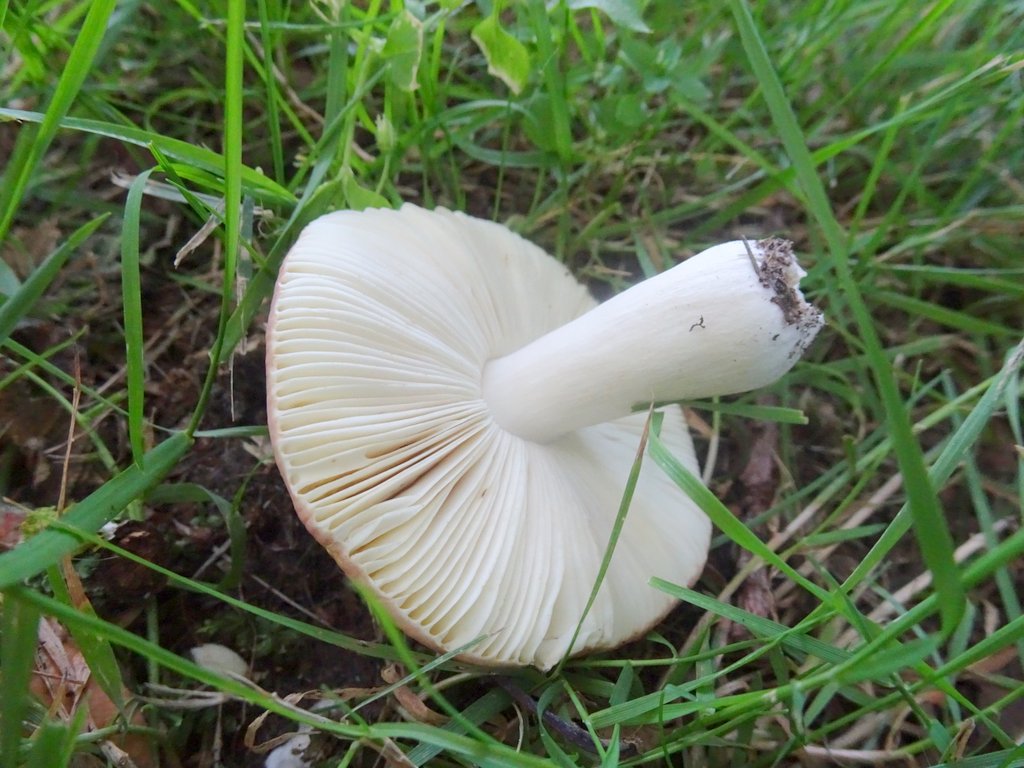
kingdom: Fungi
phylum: Basidiomycota
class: Agaricomycetes
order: Russulales
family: Russulaceae
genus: Russula
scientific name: Russula
